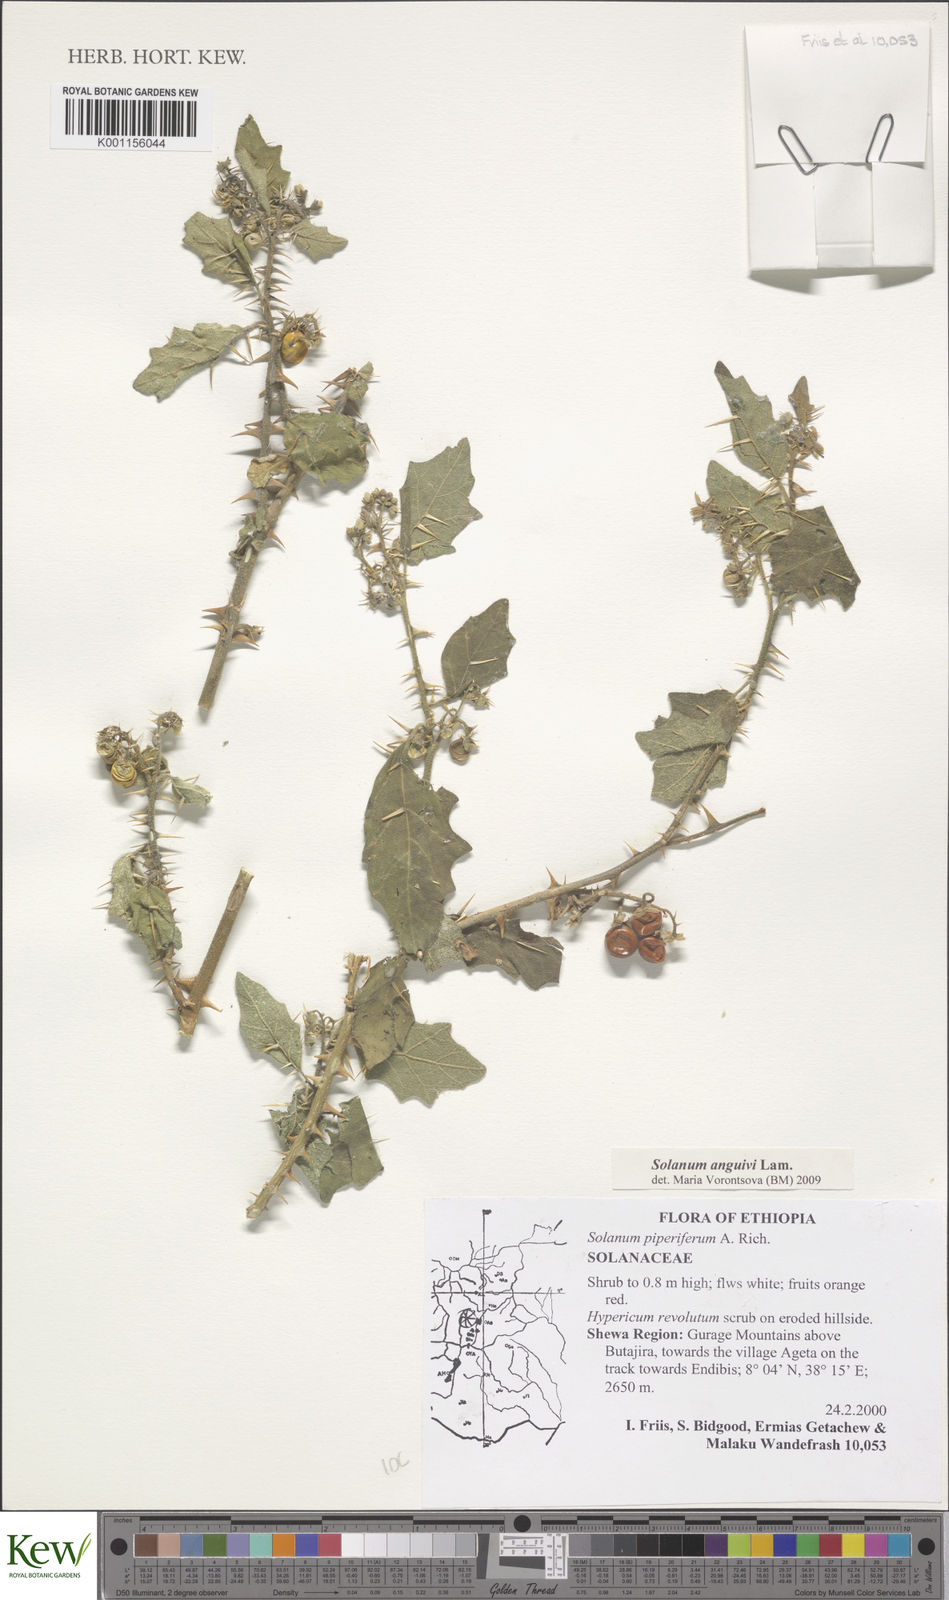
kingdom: Plantae
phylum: Tracheophyta
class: Magnoliopsida
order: Solanales
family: Solanaceae
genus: Solanum
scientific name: Solanum anguivi
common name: Forest bitterberry
